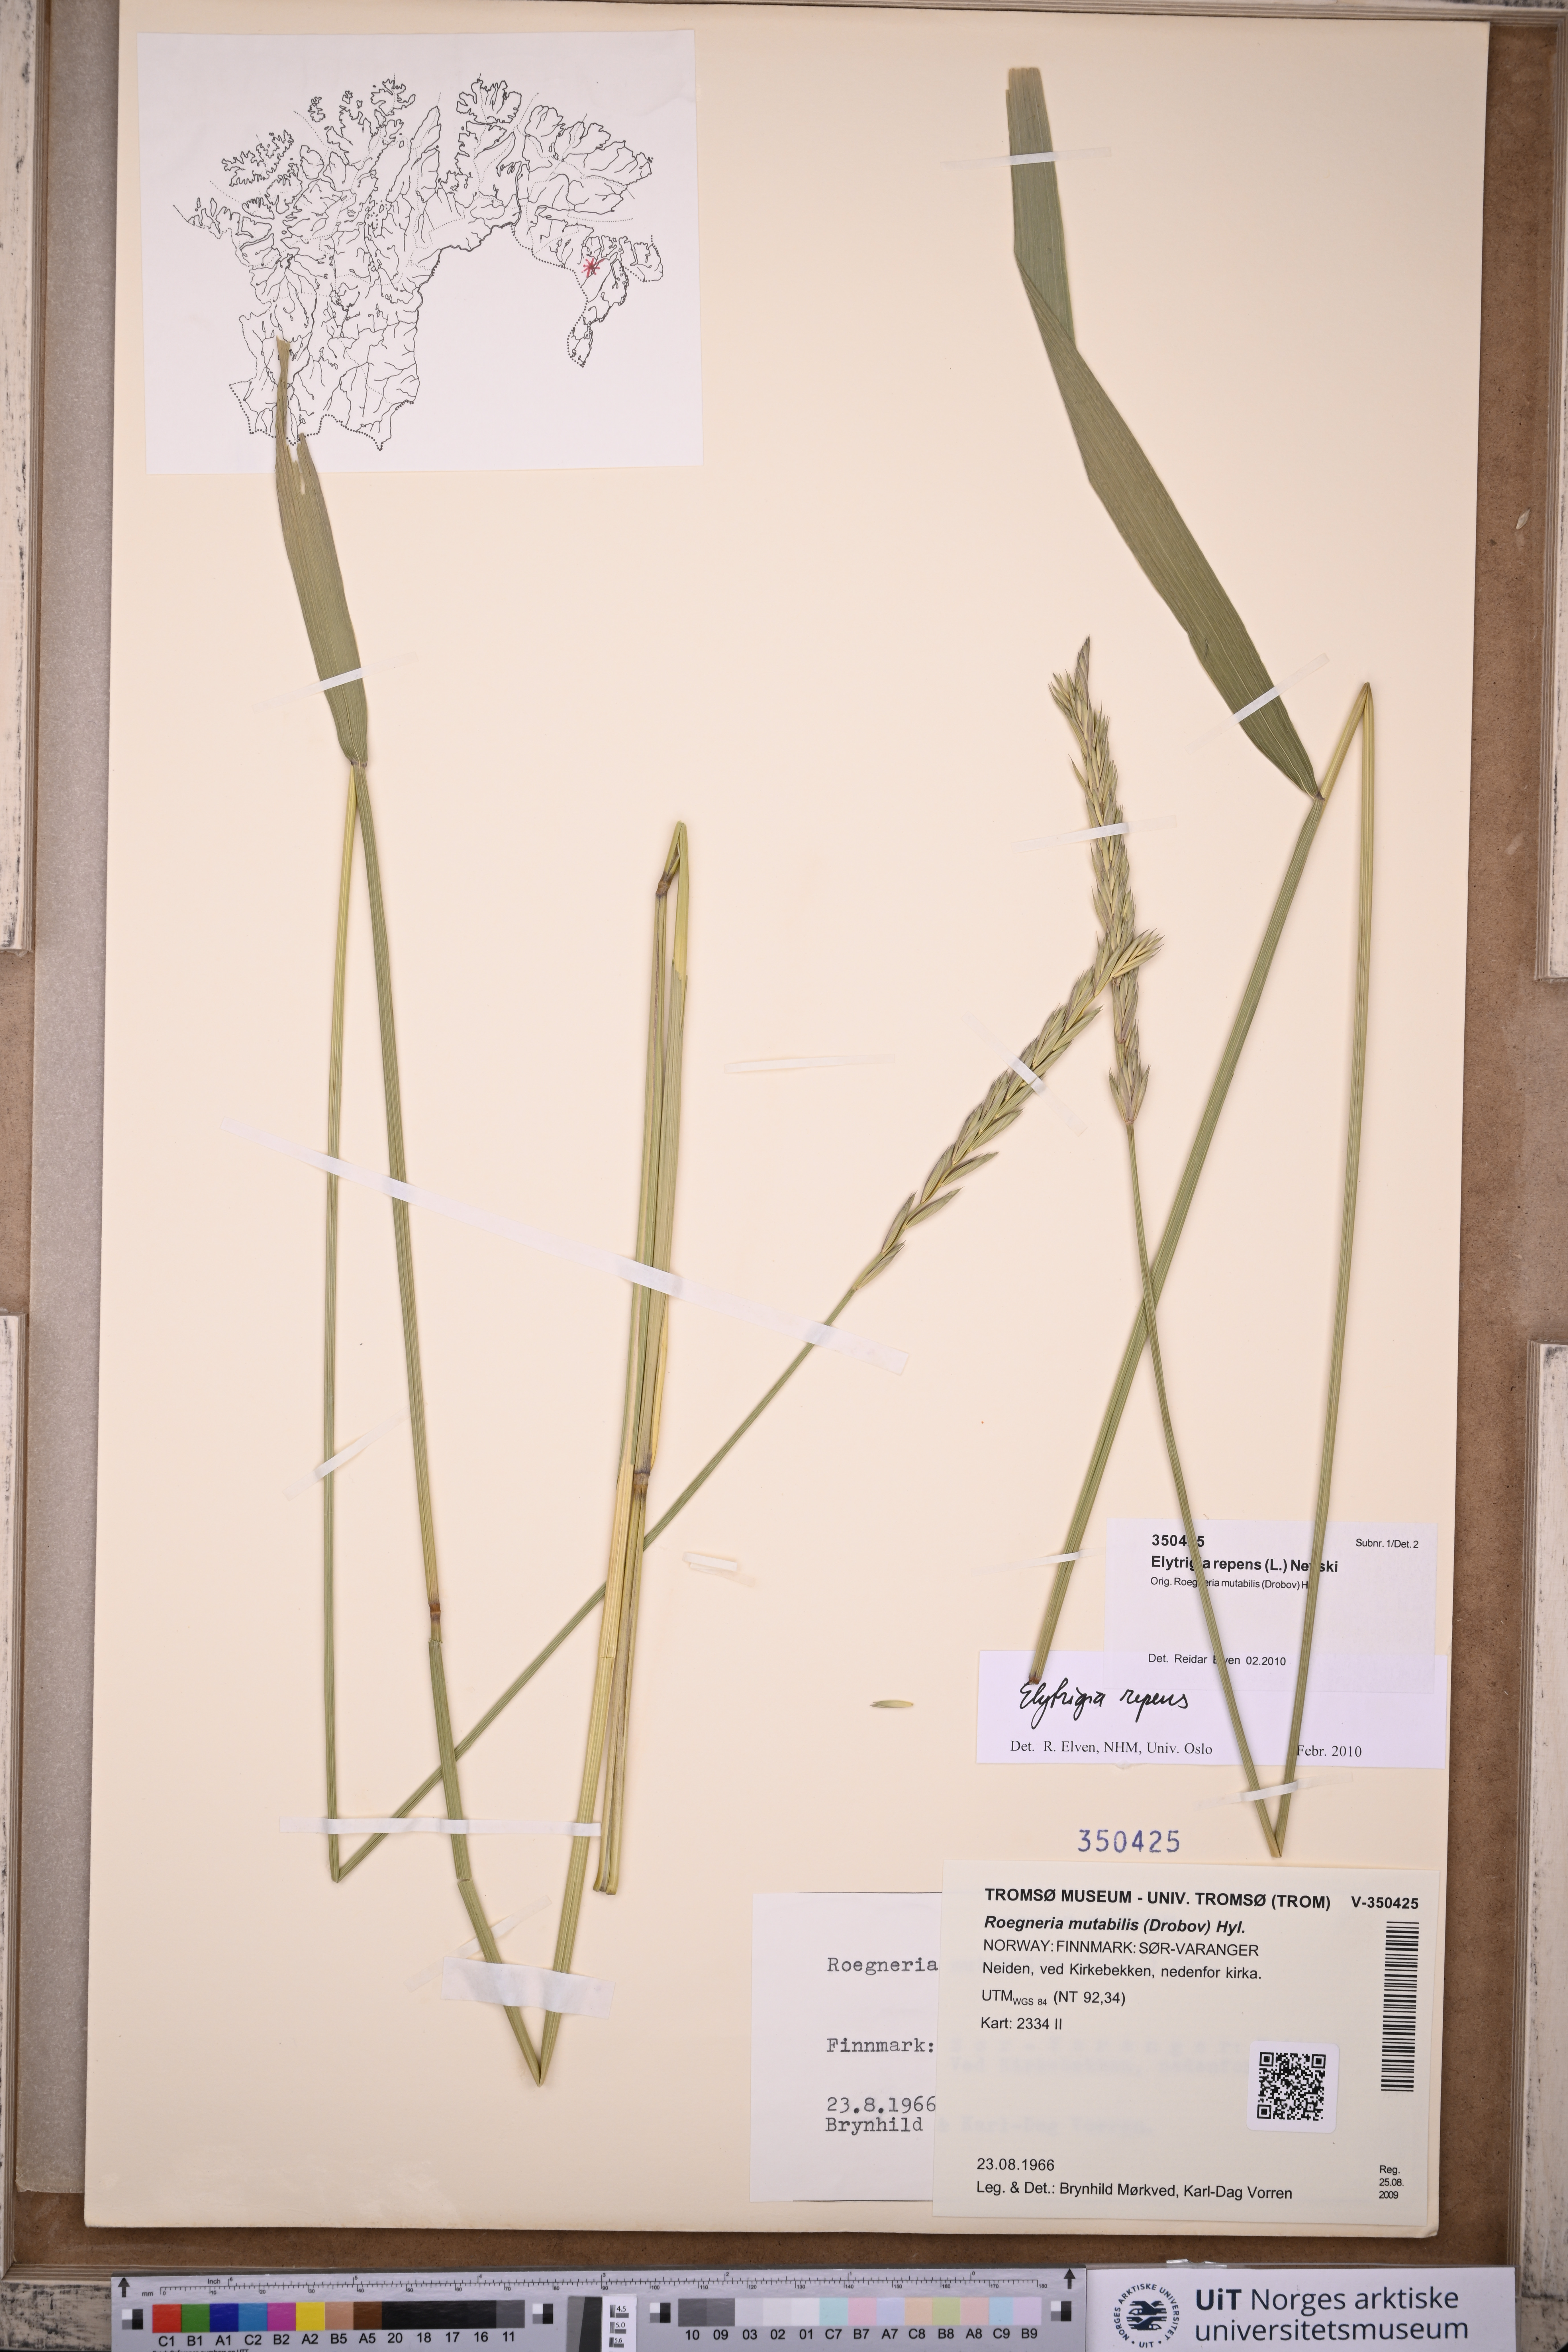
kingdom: Plantae
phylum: Tracheophyta
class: Liliopsida
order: Poales
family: Poaceae
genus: Elymus
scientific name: Elymus repens
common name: Quackgrass
